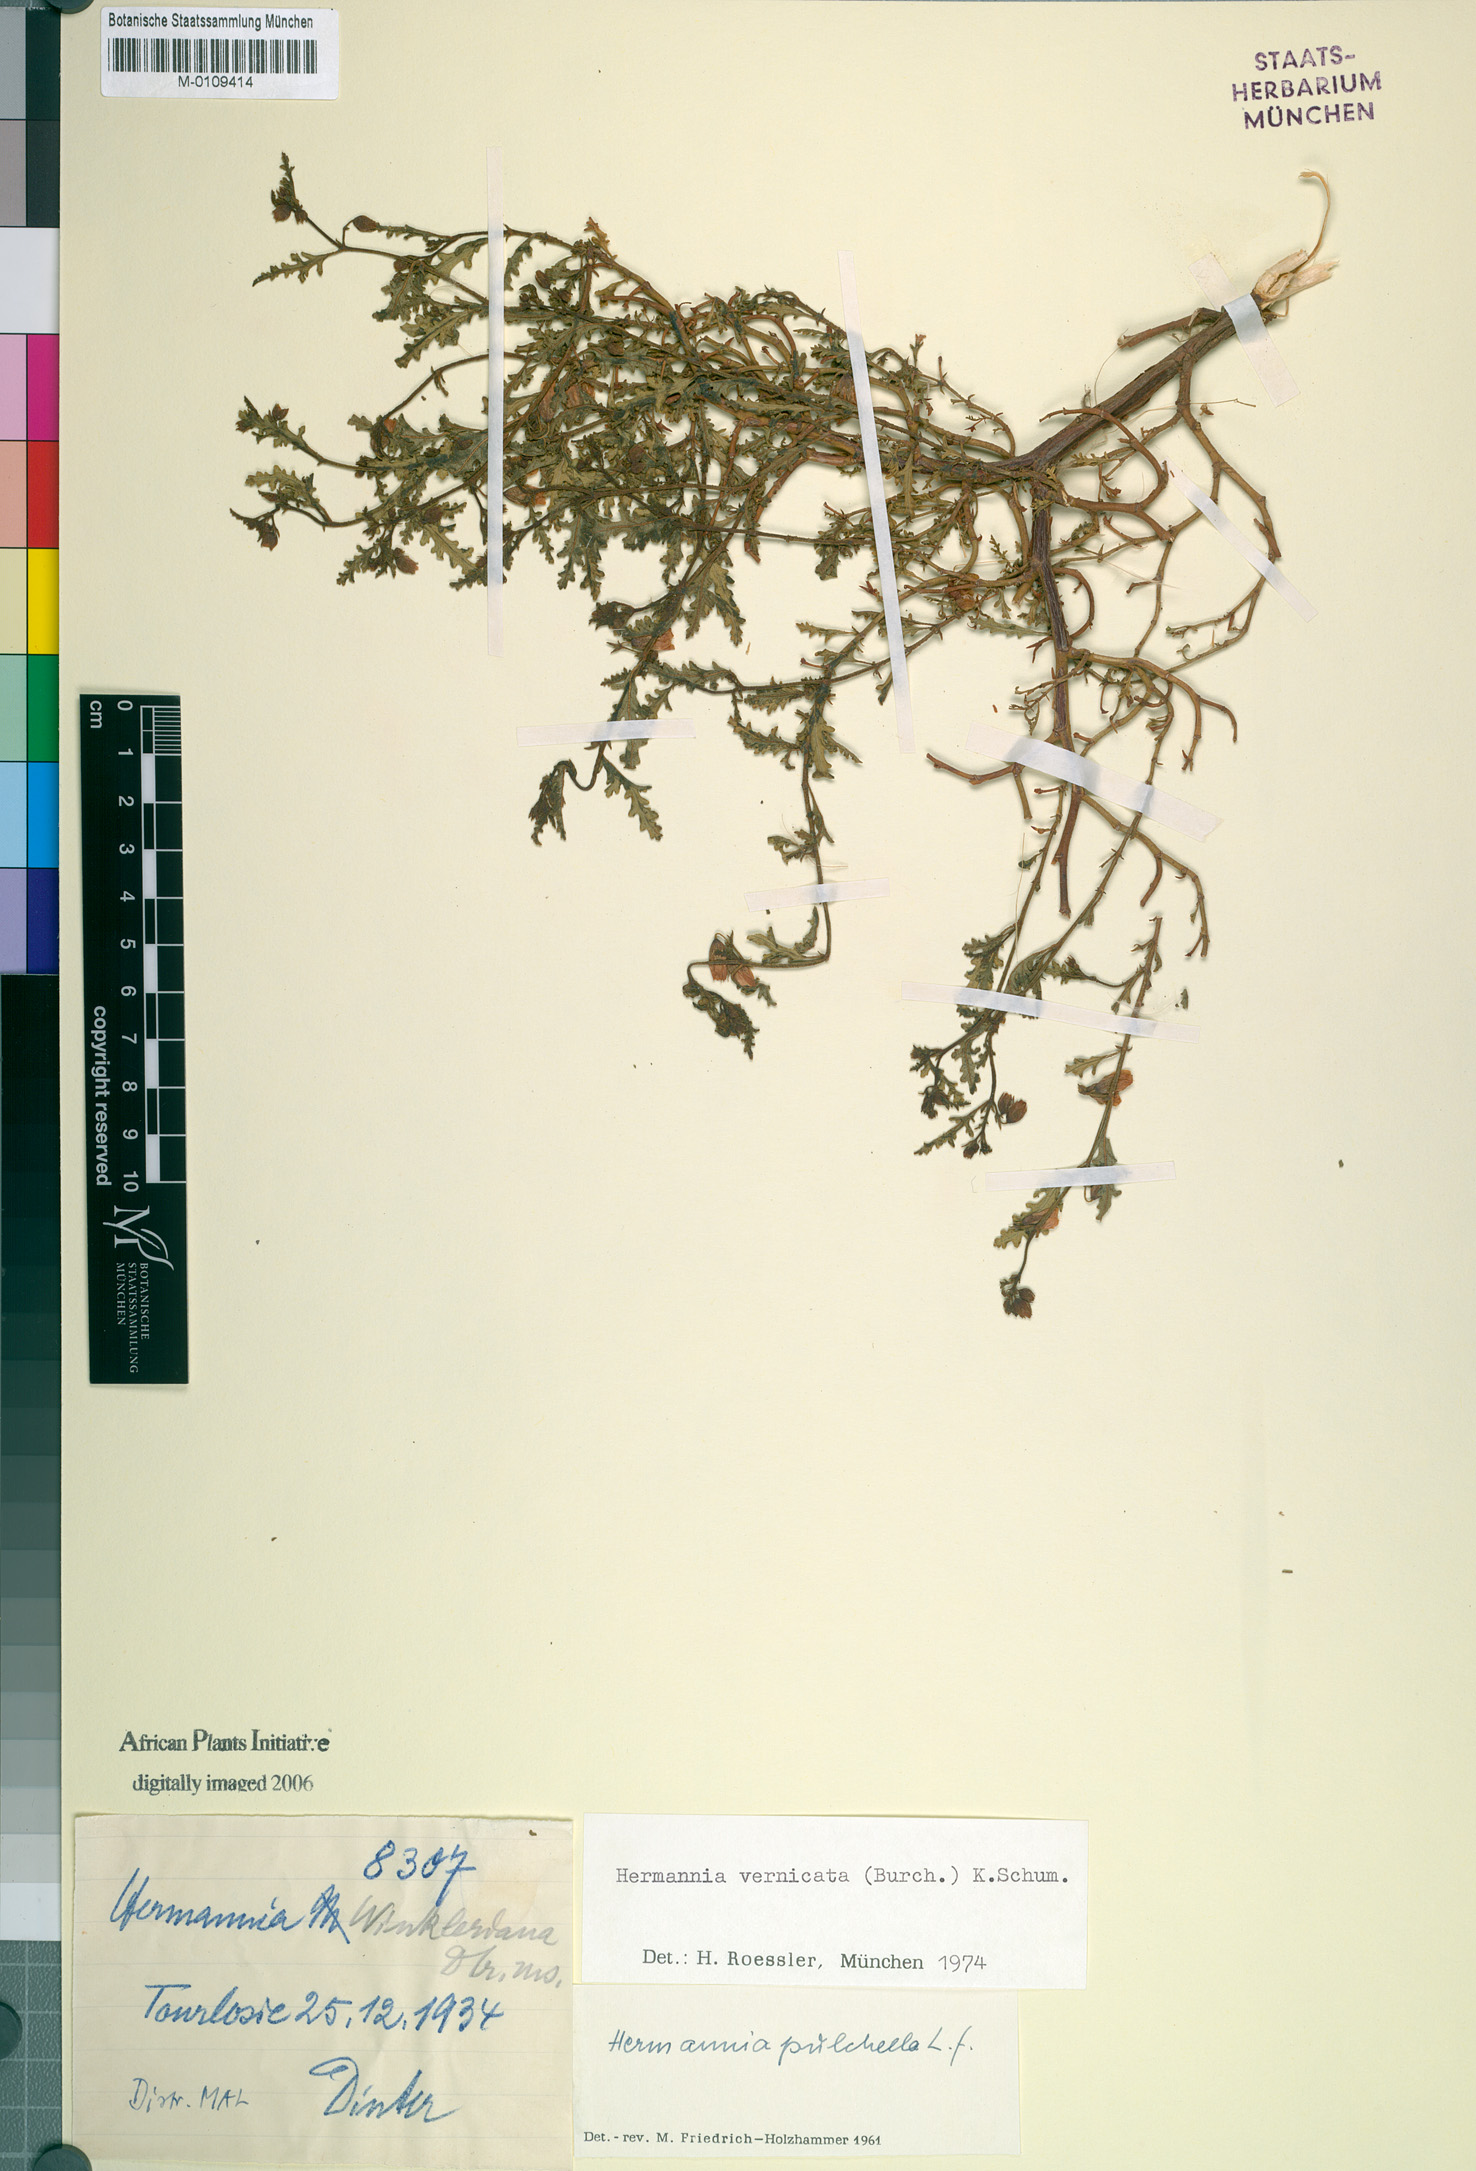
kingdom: Plantae
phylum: Tracheophyta
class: Magnoliopsida
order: Malvales
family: Malvaceae
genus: Hermannia
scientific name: Hermannia pulchella
